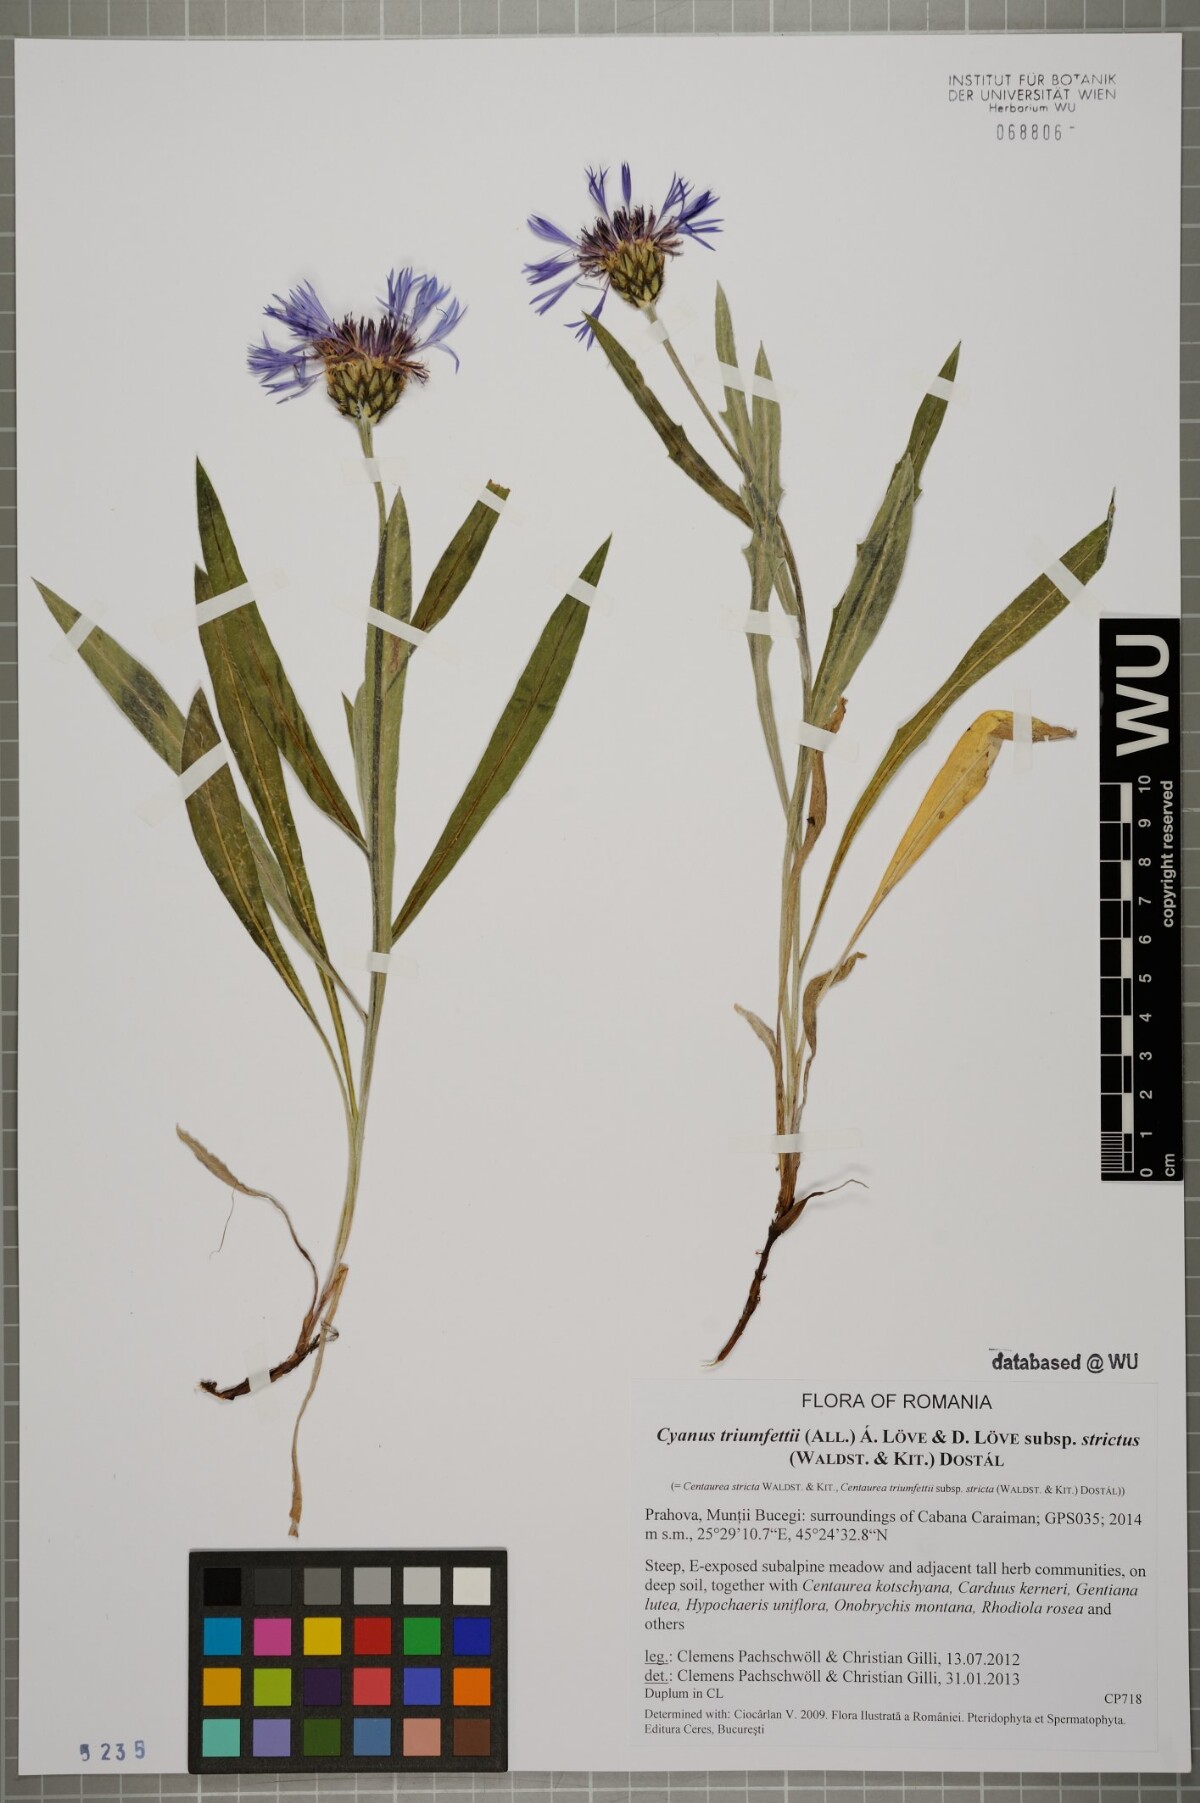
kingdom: Plantae
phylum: Tracheophyta
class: Magnoliopsida
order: Asterales
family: Asteraceae
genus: Centaurea
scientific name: Centaurea stricta
